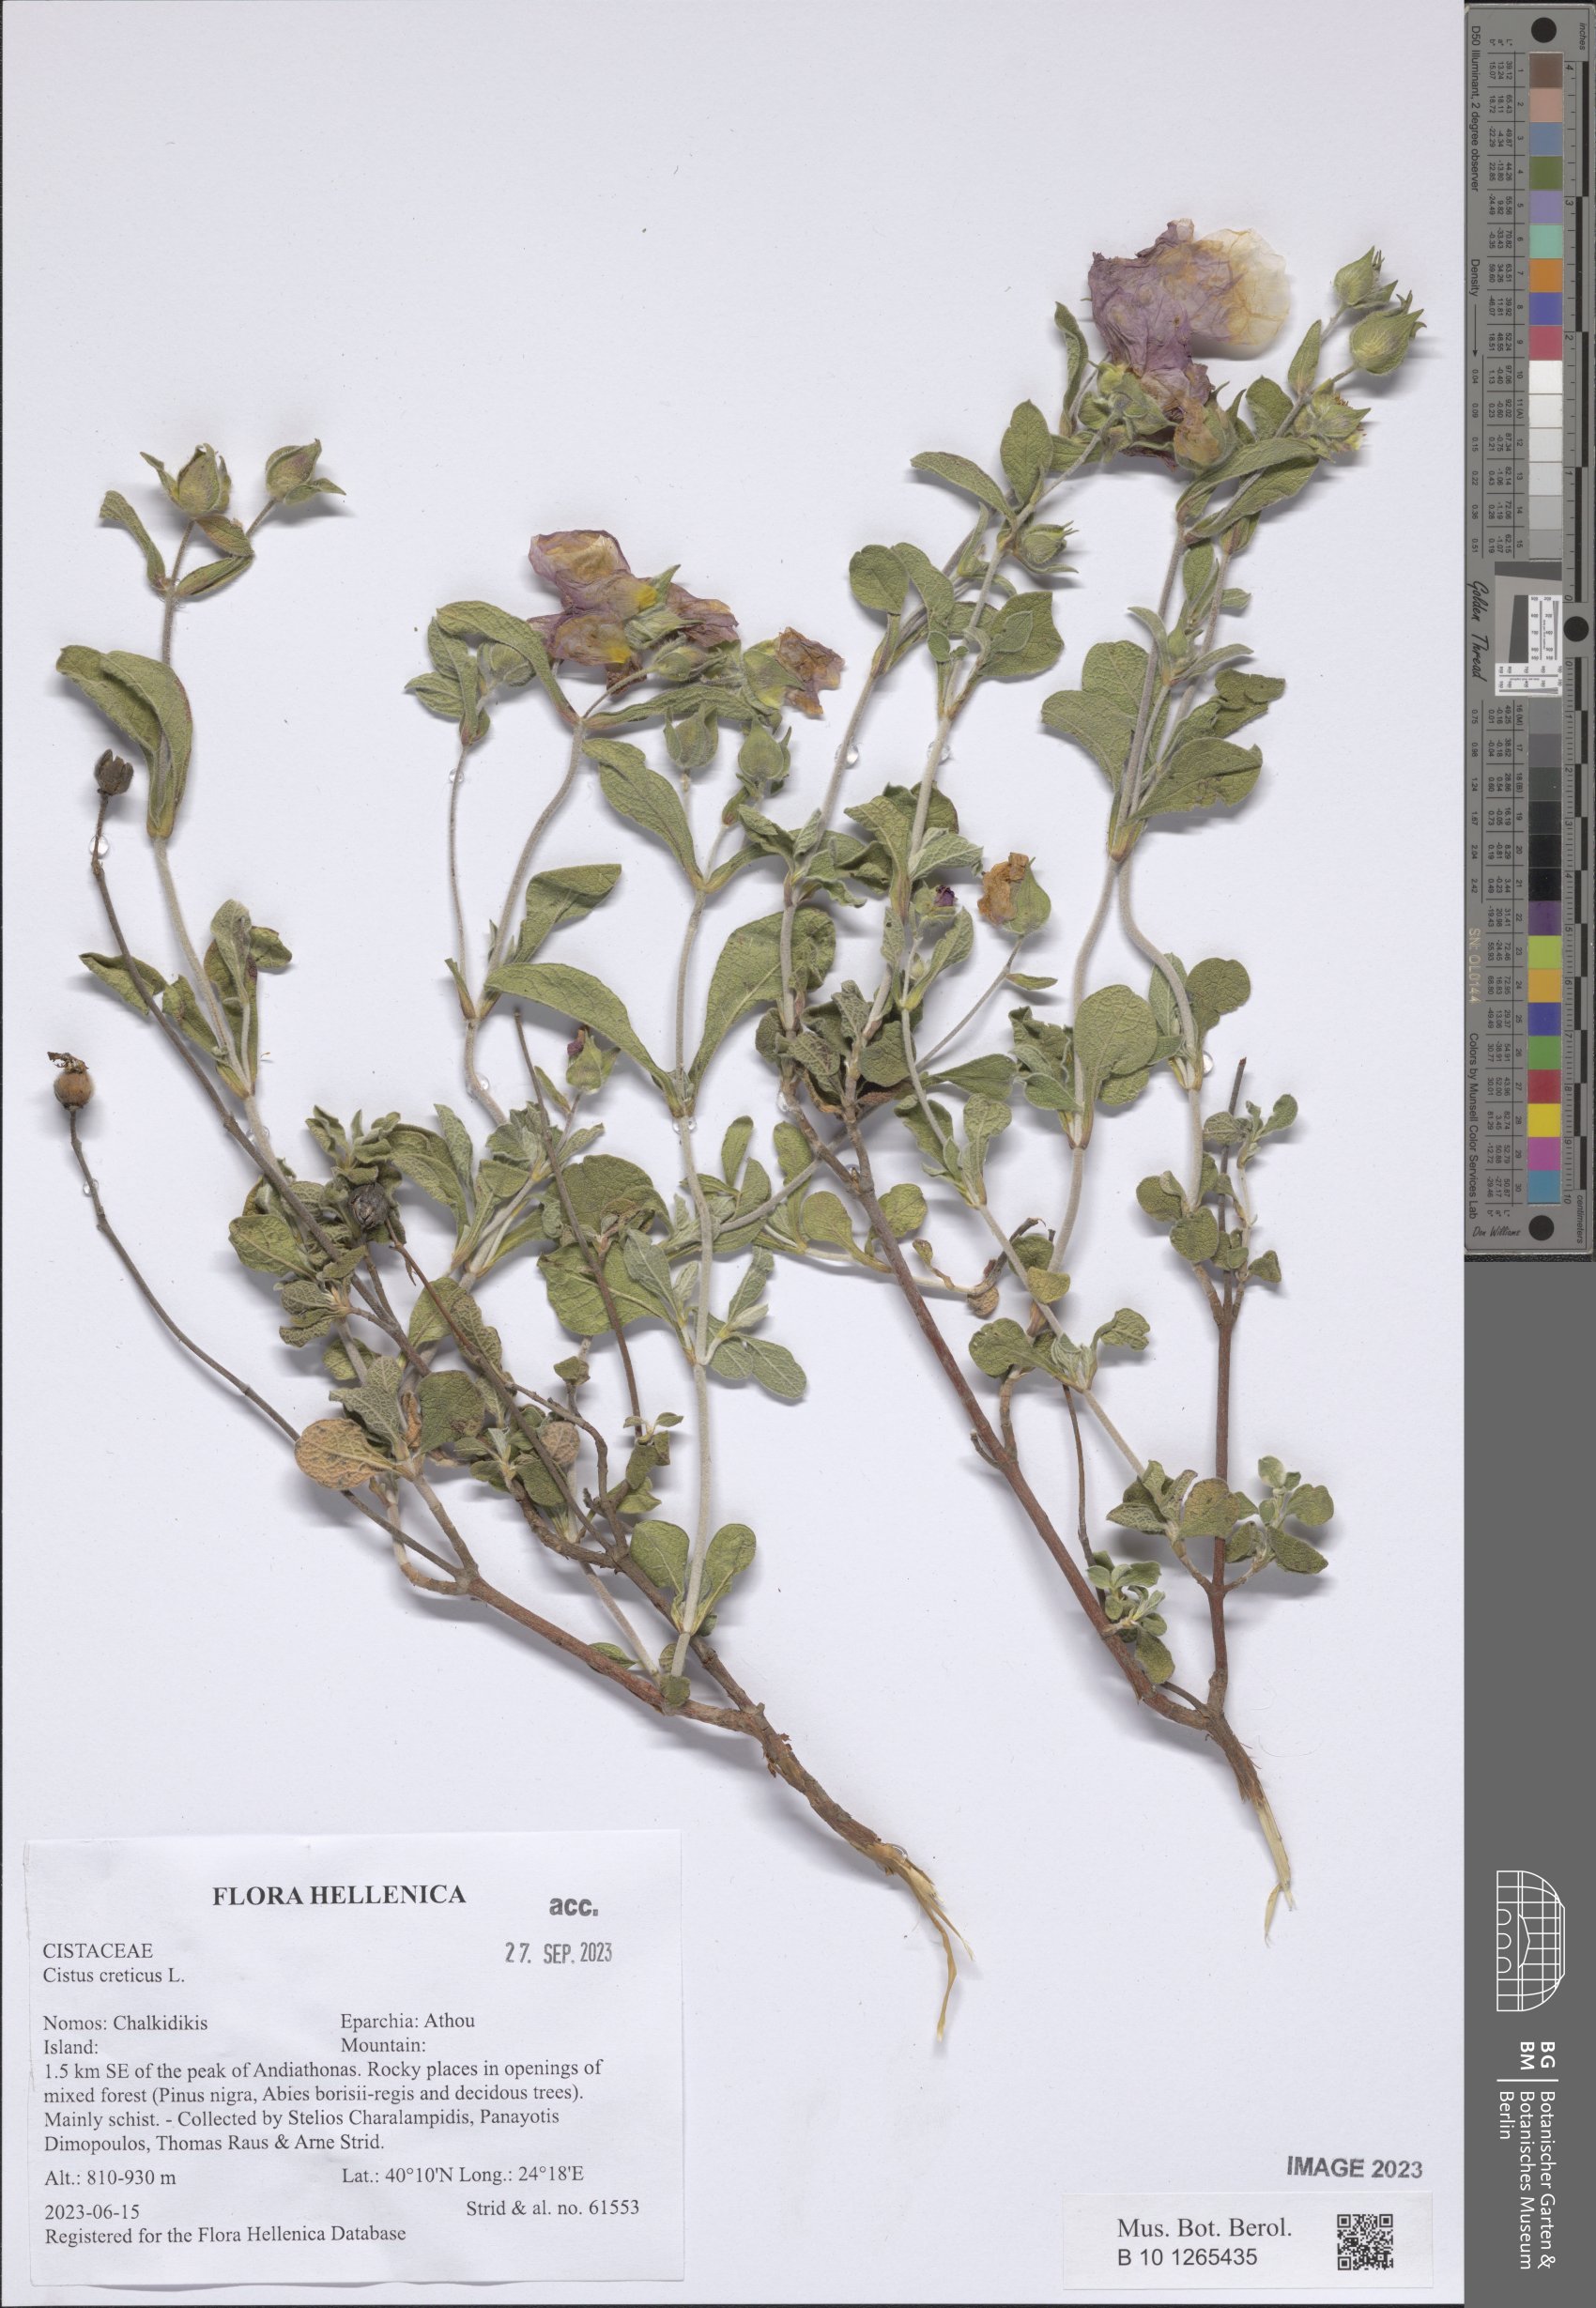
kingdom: Plantae
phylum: Tracheophyta
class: Magnoliopsida
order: Malvales
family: Cistaceae
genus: Cistus
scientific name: Cistus creticus
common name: Cretan rockrose
